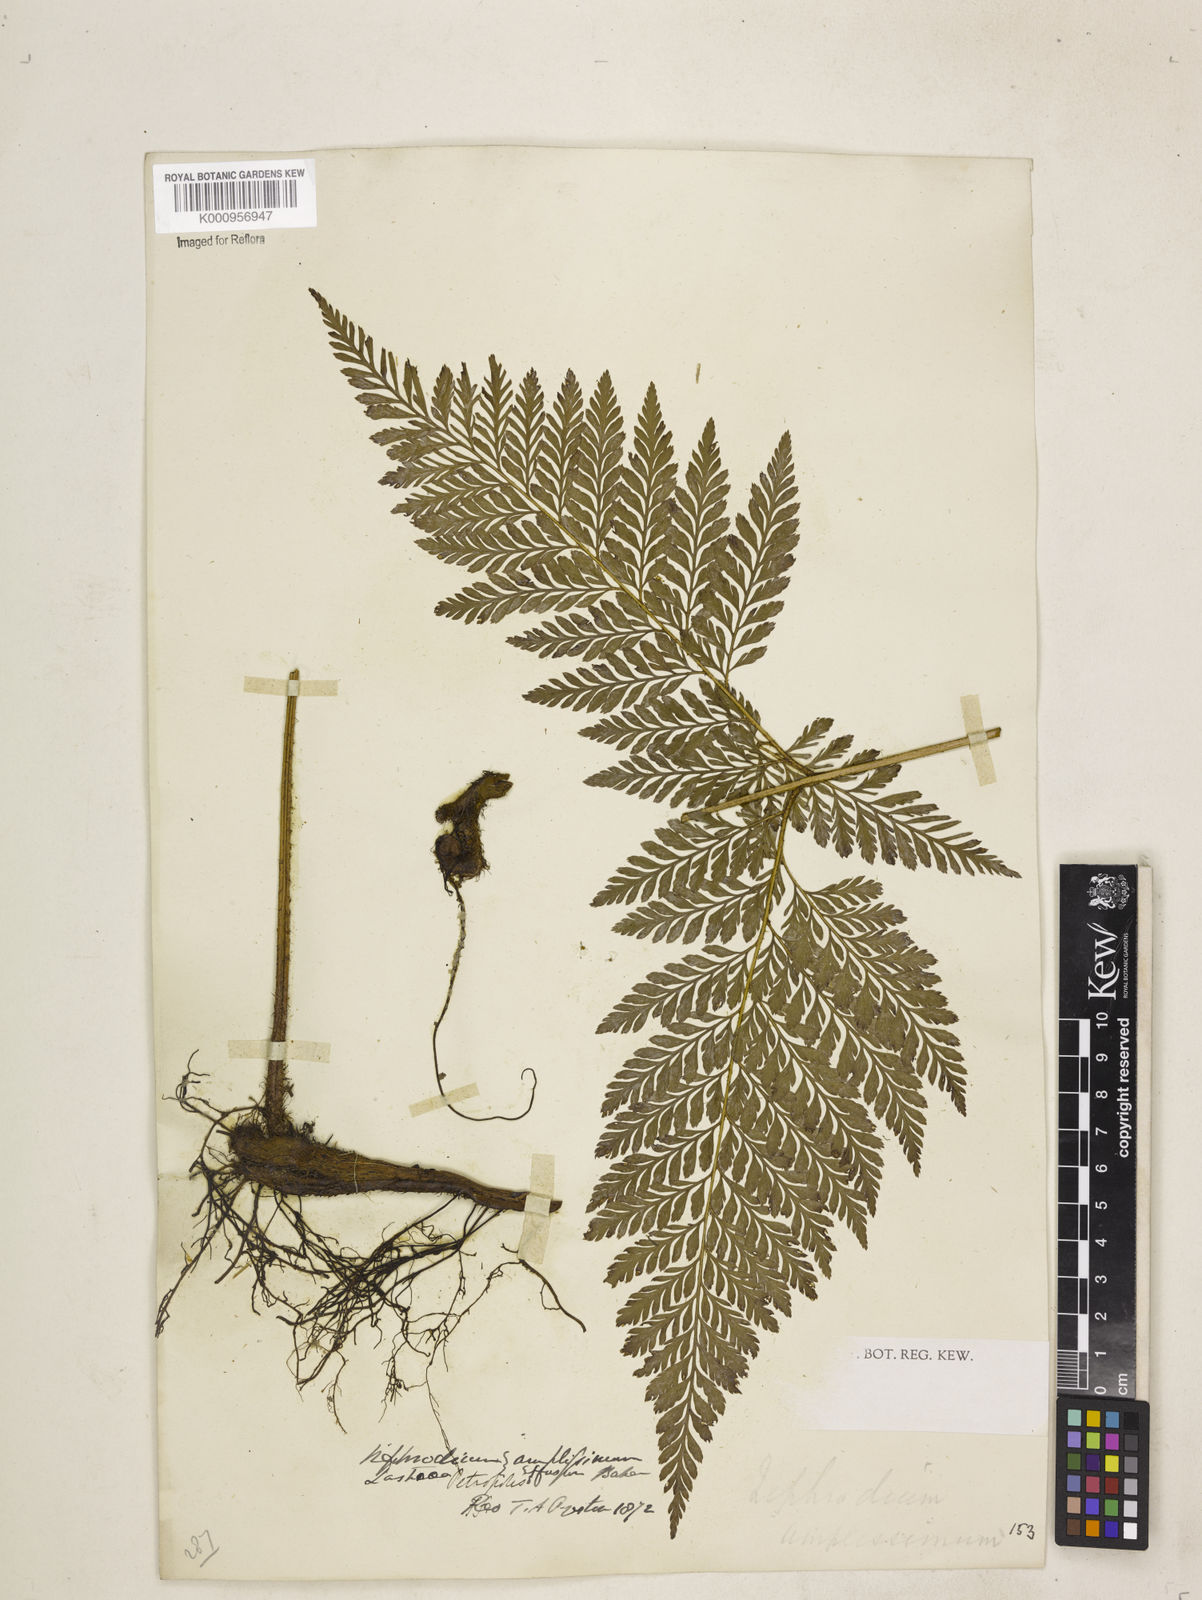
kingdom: Plantae
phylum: Tracheophyta
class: Polypodiopsida
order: Polypodiales
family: Dryopteridaceae
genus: Lastreopsis
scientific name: Lastreopsis amplissima
